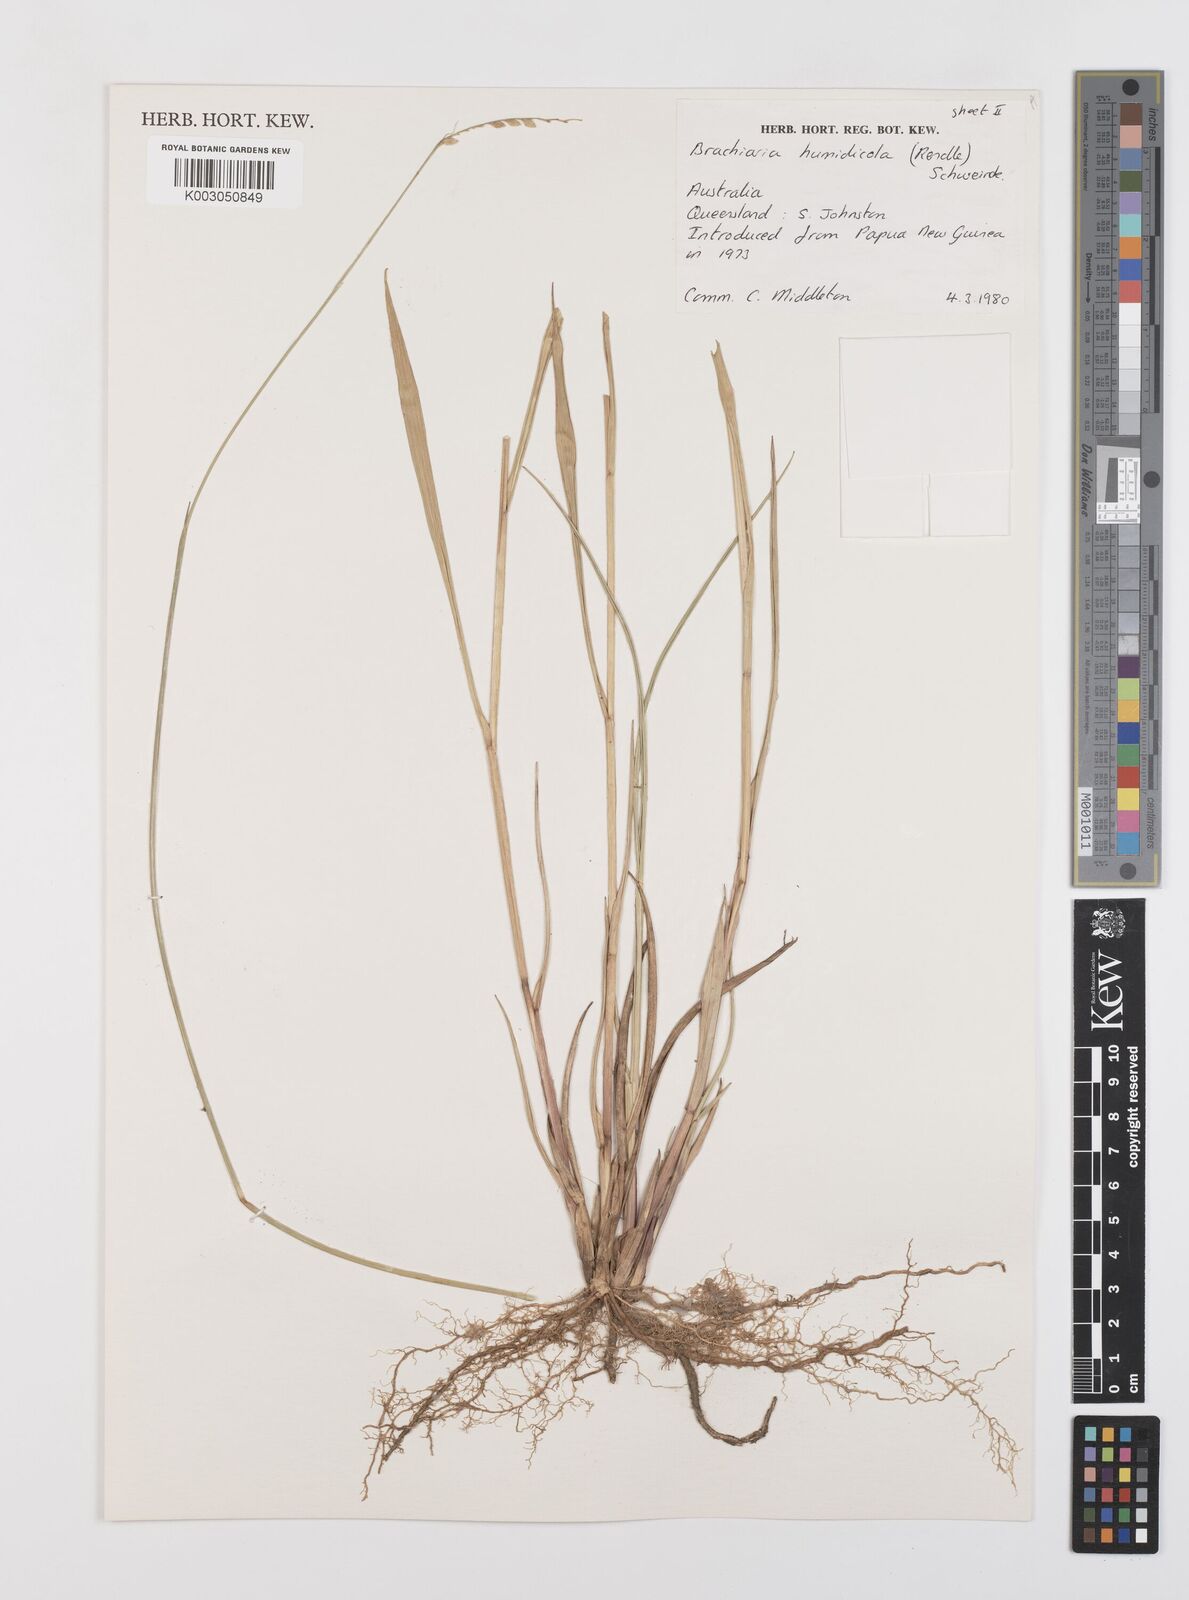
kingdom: Plantae
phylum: Tracheophyta
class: Liliopsida
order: Poales
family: Poaceae
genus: Urochloa
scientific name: Urochloa dictyoneura
